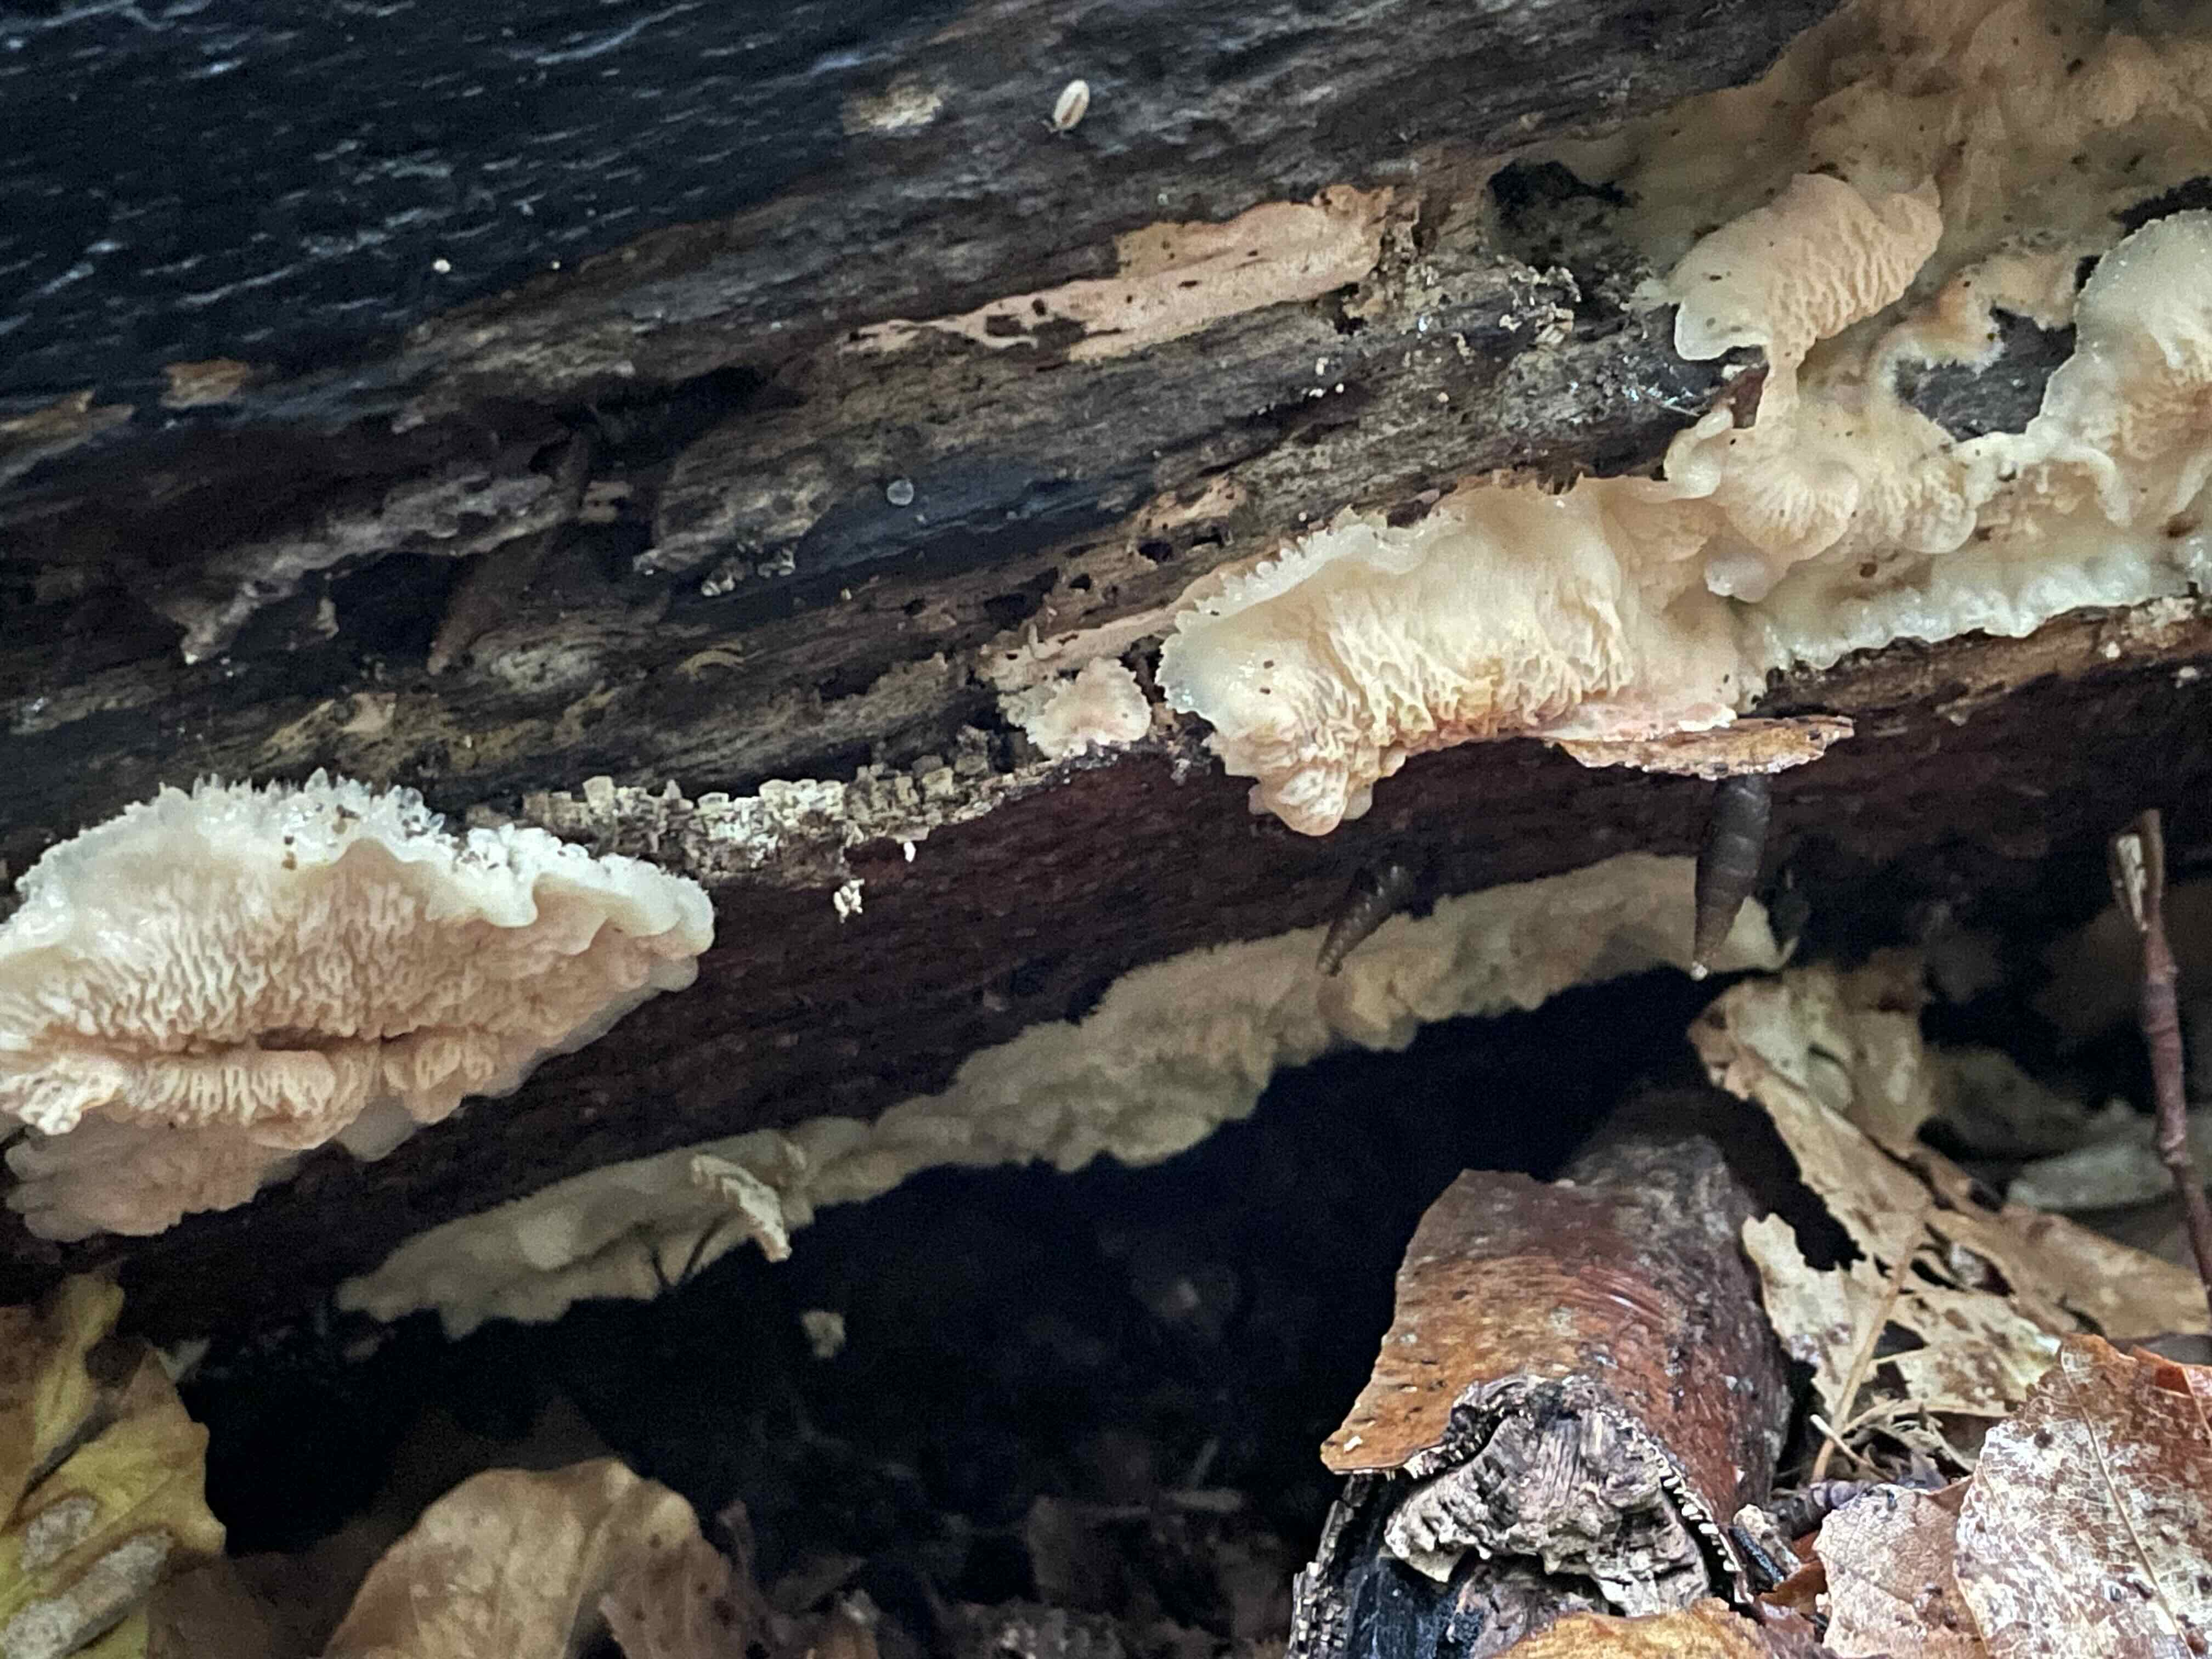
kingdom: Fungi
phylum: Basidiomycota
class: Agaricomycetes
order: Polyporales
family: Meruliaceae
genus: Phlebia
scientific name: Phlebia tremellosa
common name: bævrende åresvamp
